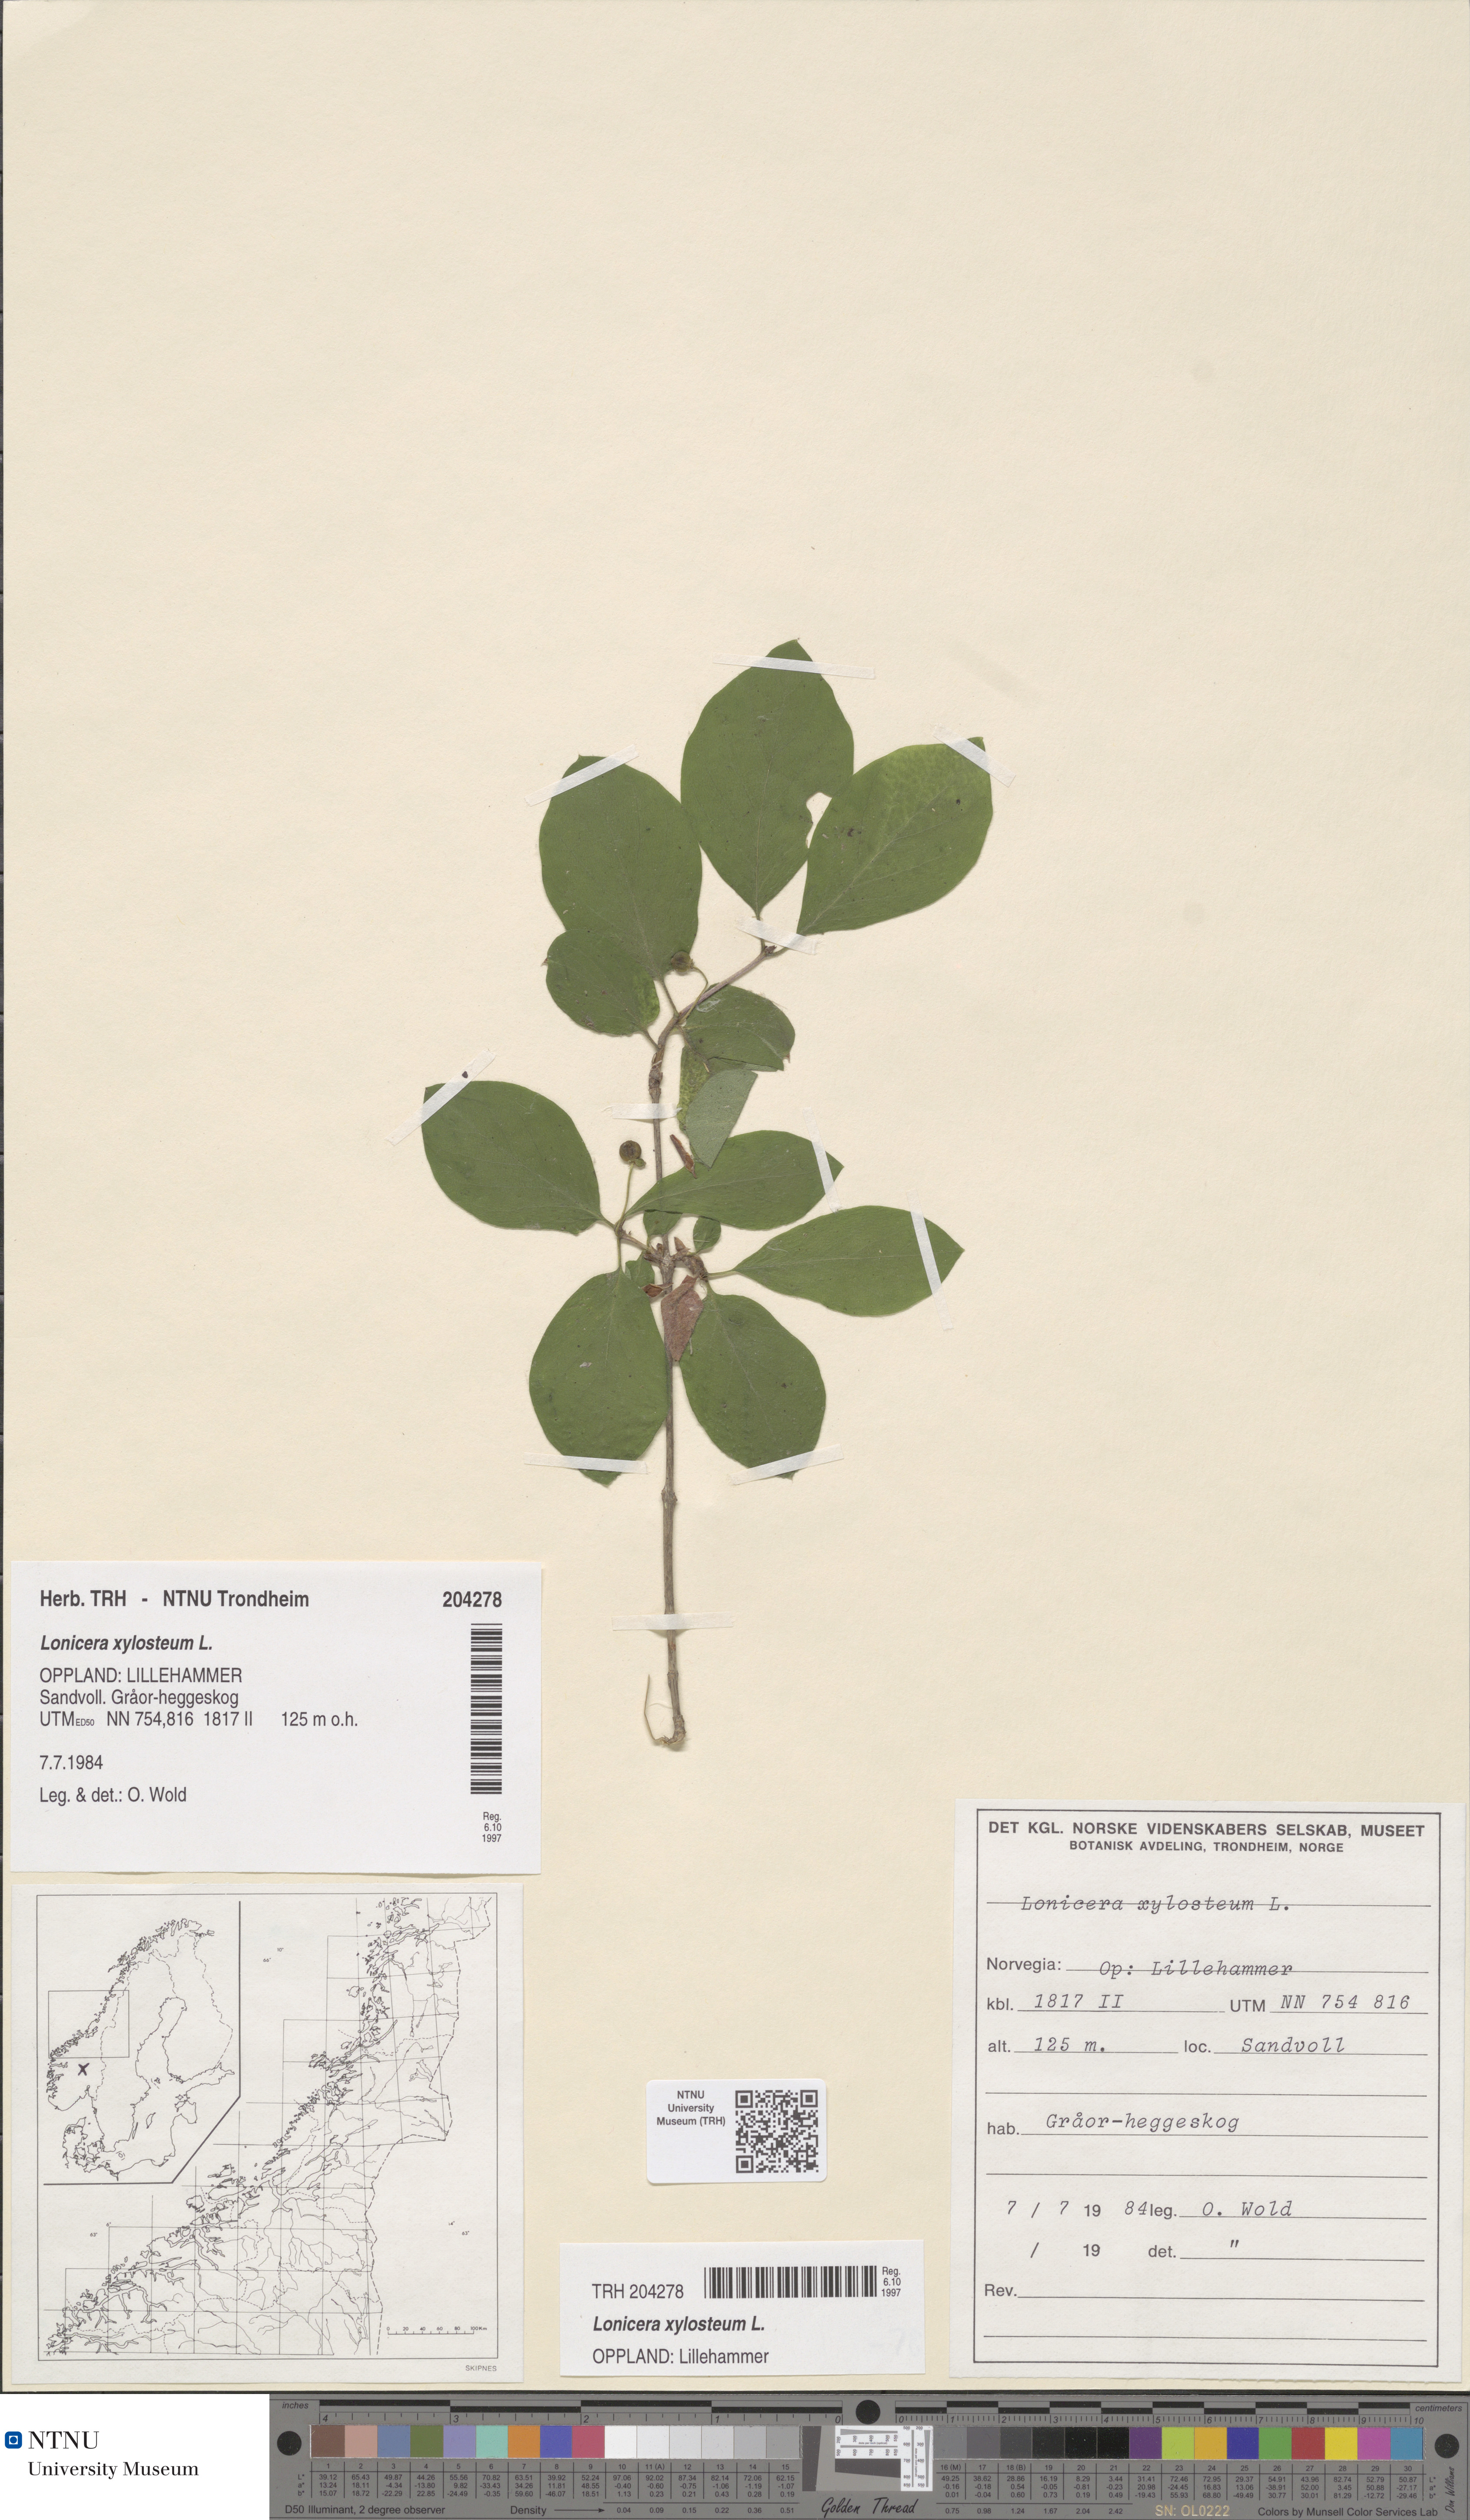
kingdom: Plantae
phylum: Tracheophyta
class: Magnoliopsida
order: Dipsacales
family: Caprifoliaceae
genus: Lonicera
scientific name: Lonicera xylosteum
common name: Fly honeysuckle
